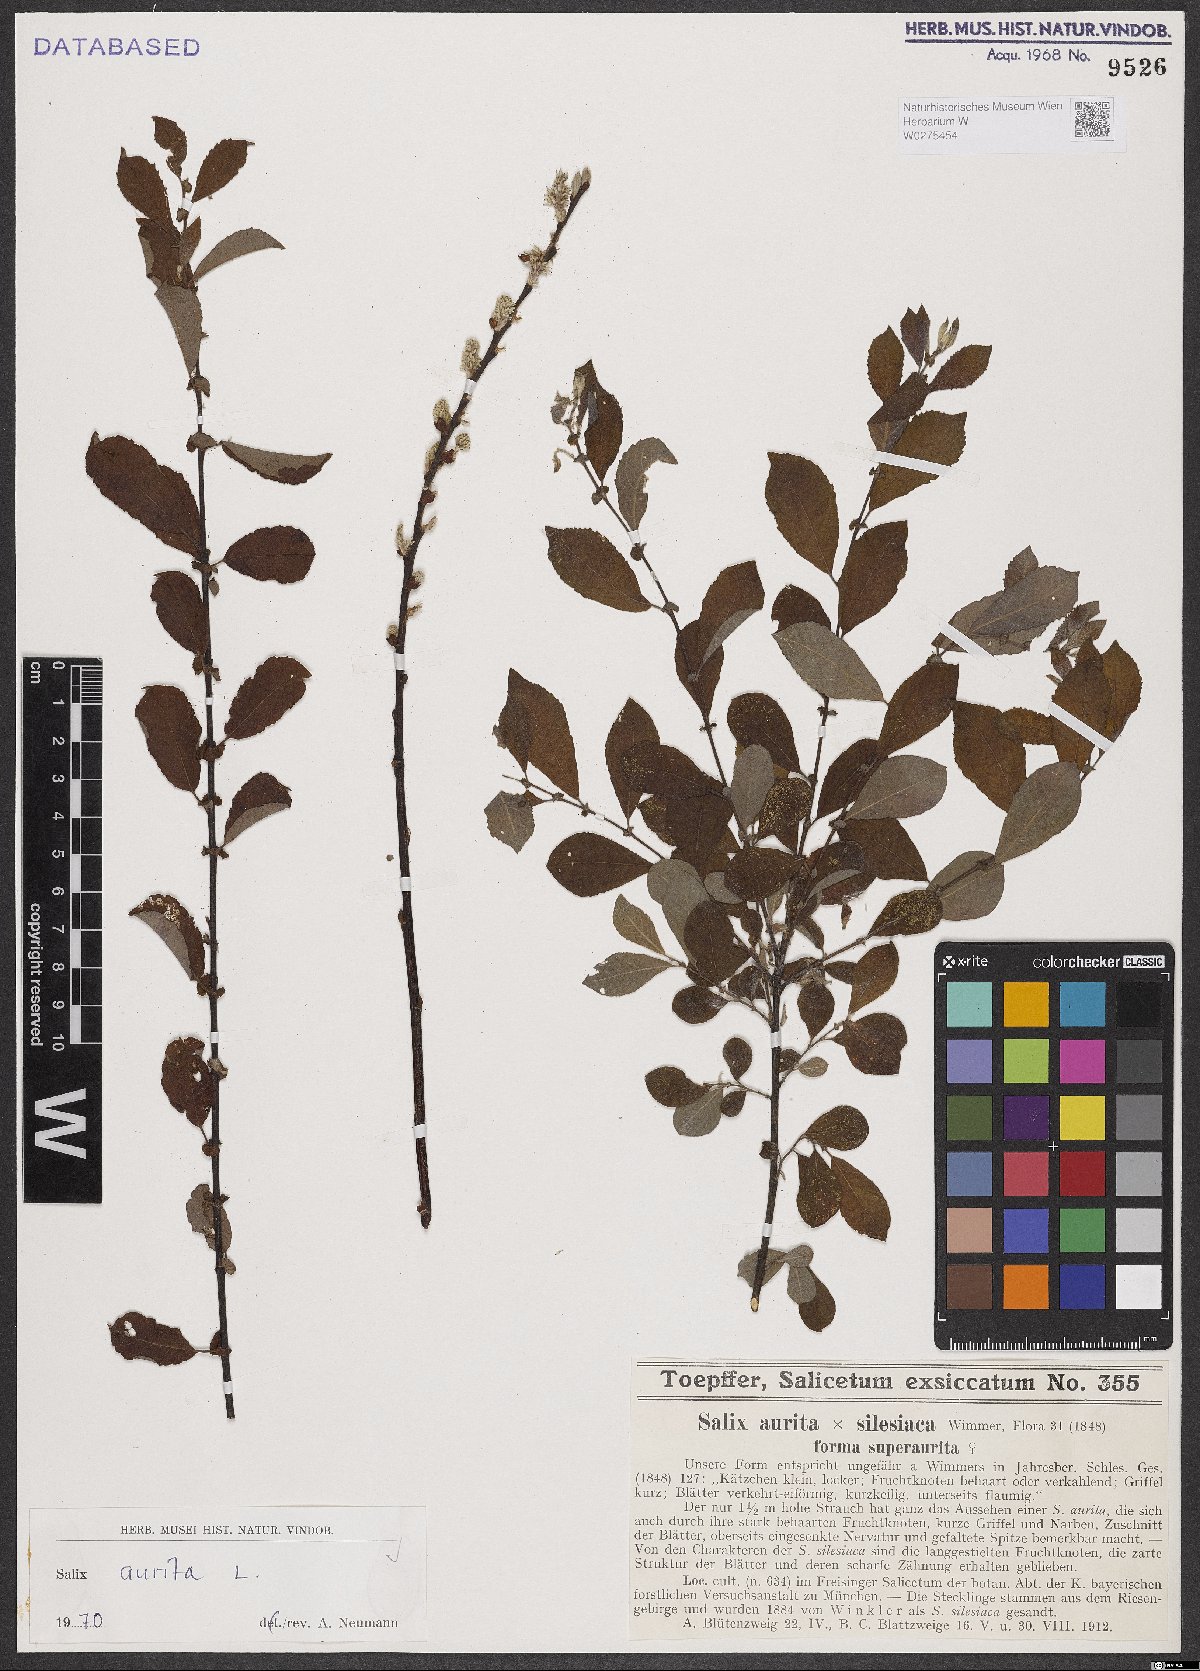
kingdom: Plantae
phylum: Tracheophyta
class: Magnoliopsida
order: Malpighiales
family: Salicaceae
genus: Salix
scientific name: Salix aurita
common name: Eared willow
